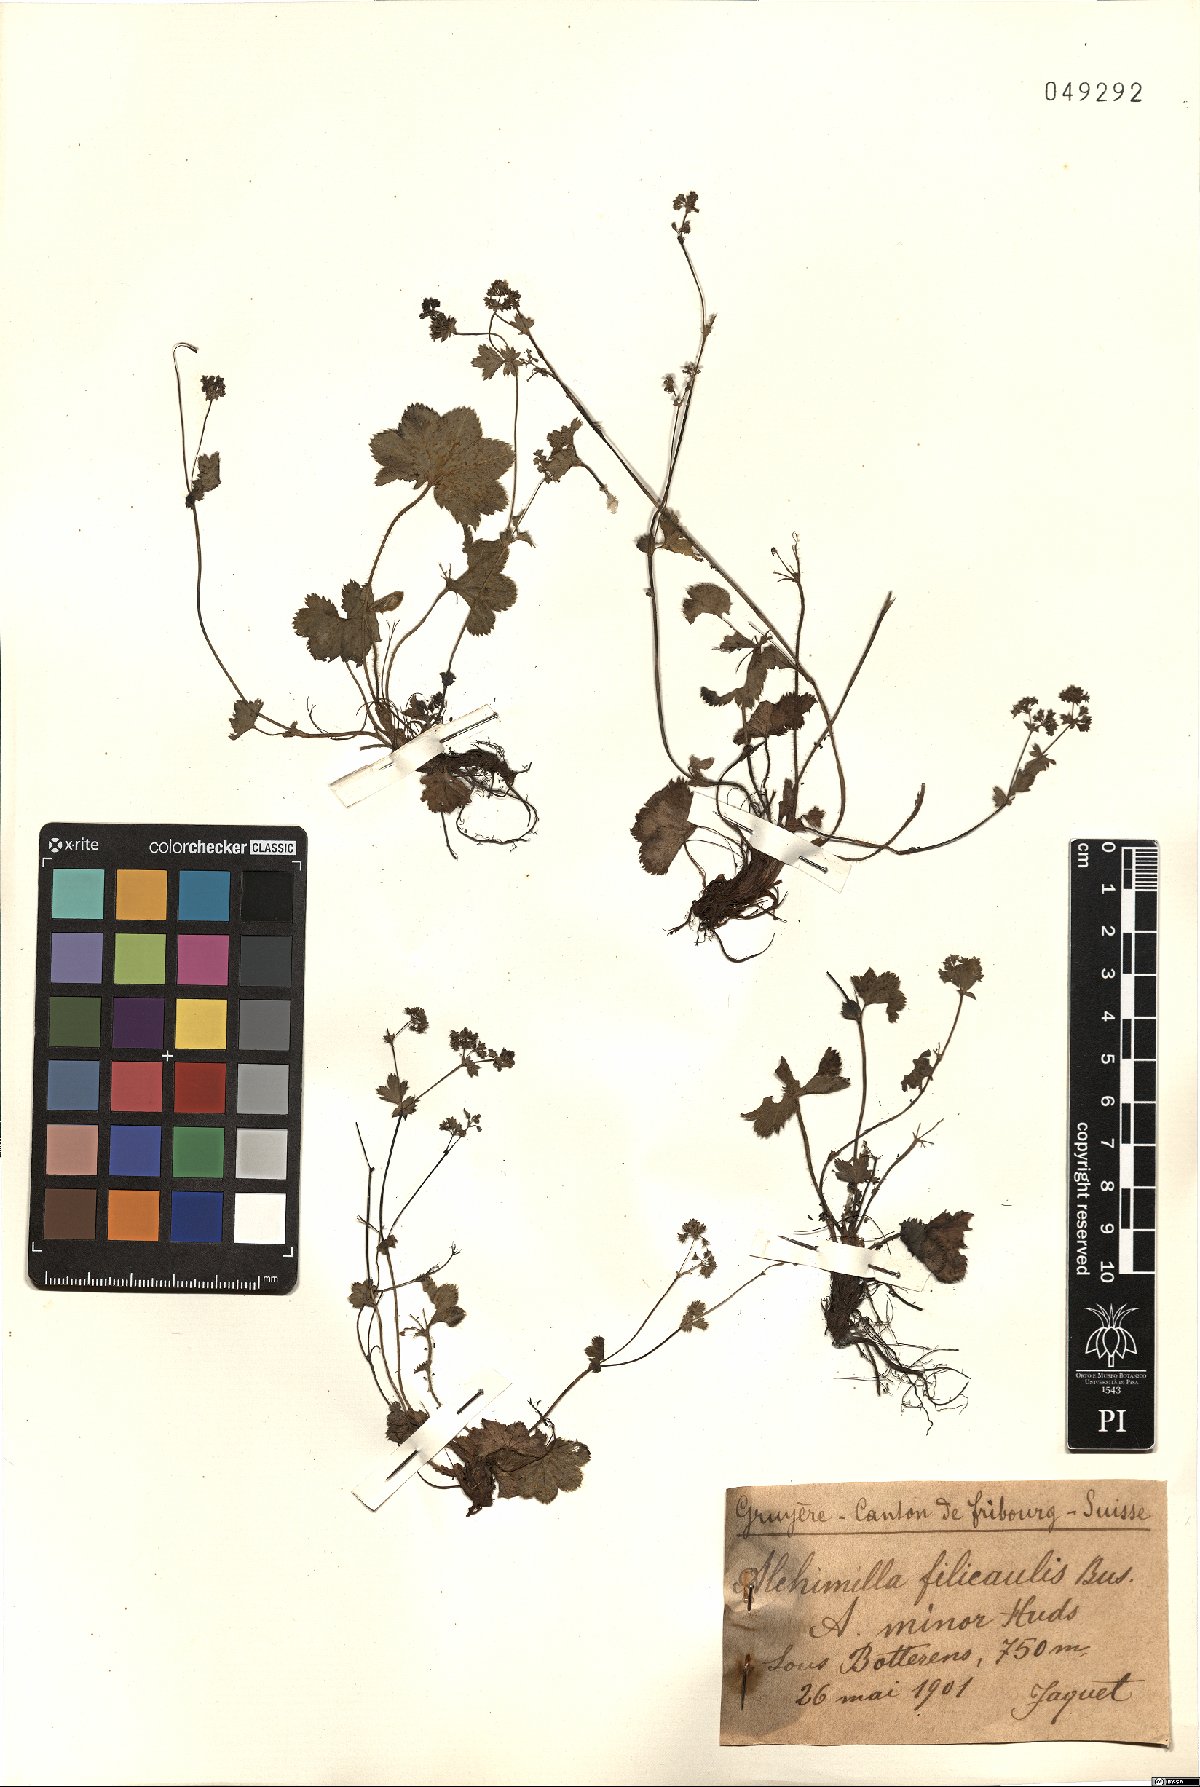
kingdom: Plantae
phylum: Tracheophyta
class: Magnoliopsida
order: Rosales
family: Rosaceae
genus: Alchemilla
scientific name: Alchemilla filicaulis
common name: Hairy lady's-mantle
